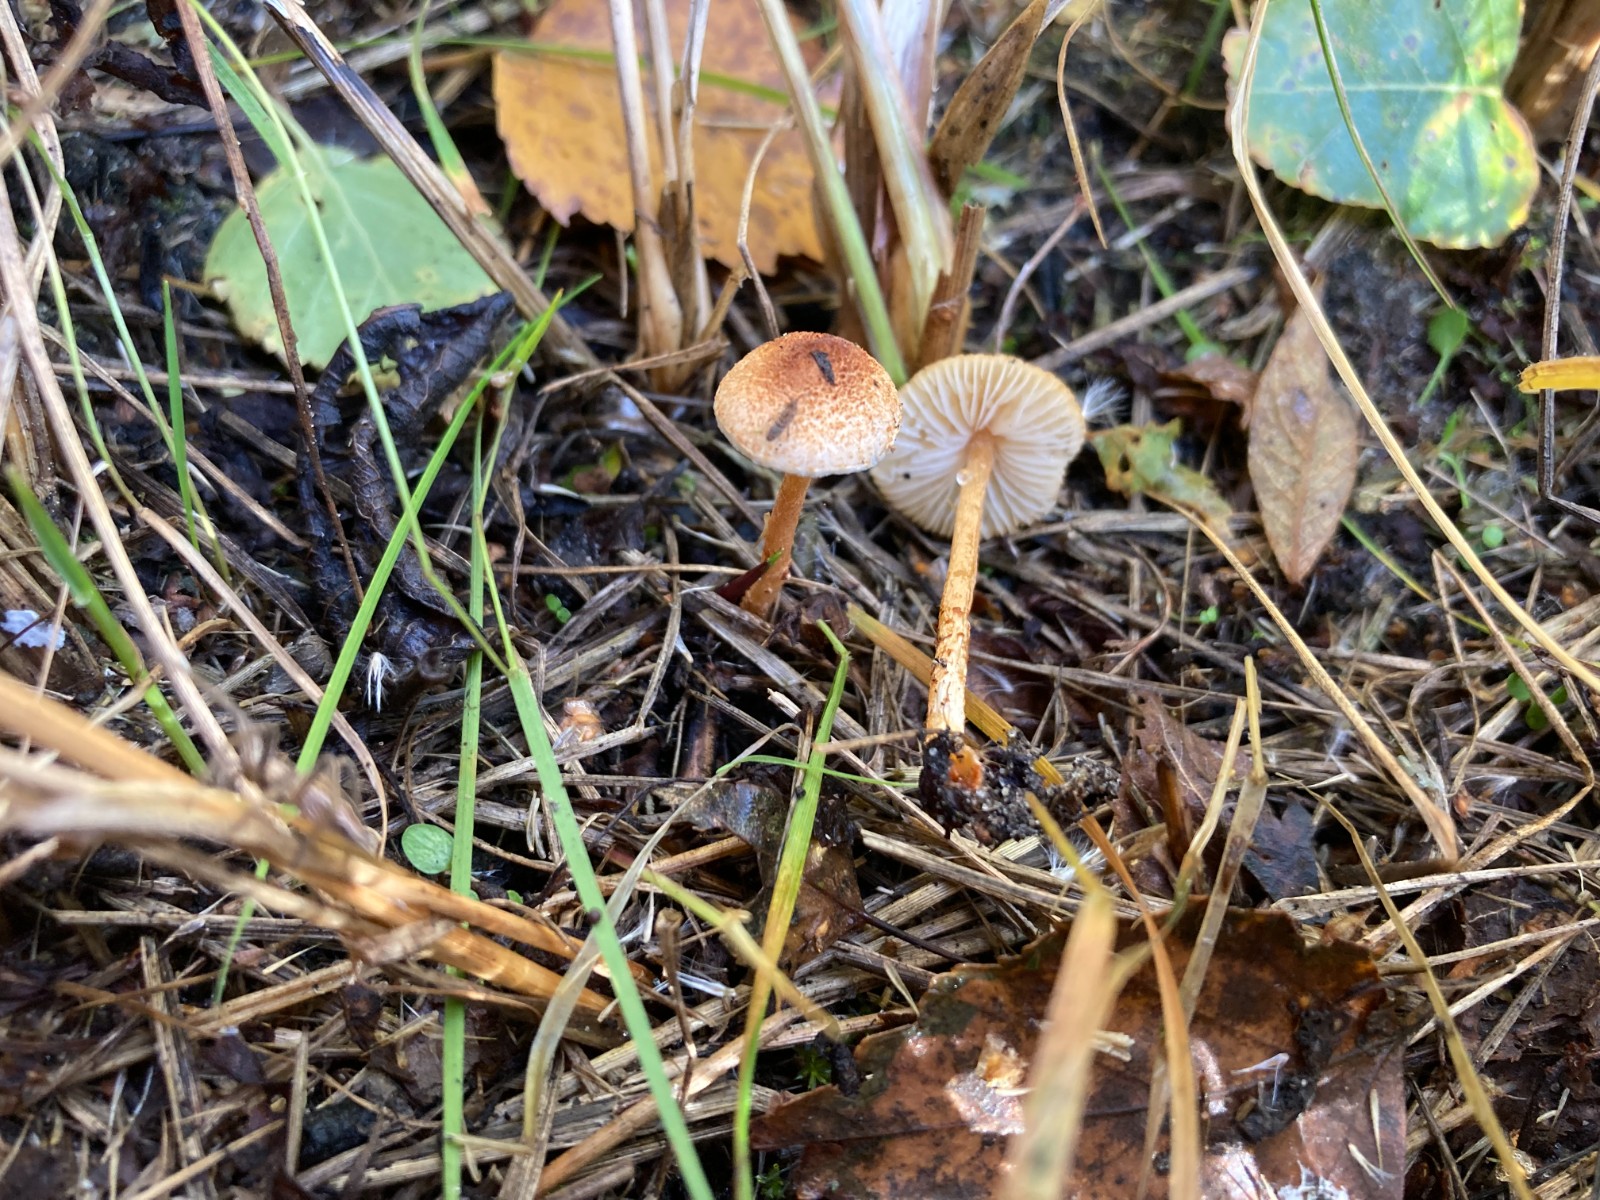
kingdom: Fungi
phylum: Basidiomycota
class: Agaricomycetes
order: Agaricales
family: Agaricaceae
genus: Lepiota
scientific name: Lepiota castanea
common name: kastaniebrun parasolhat
